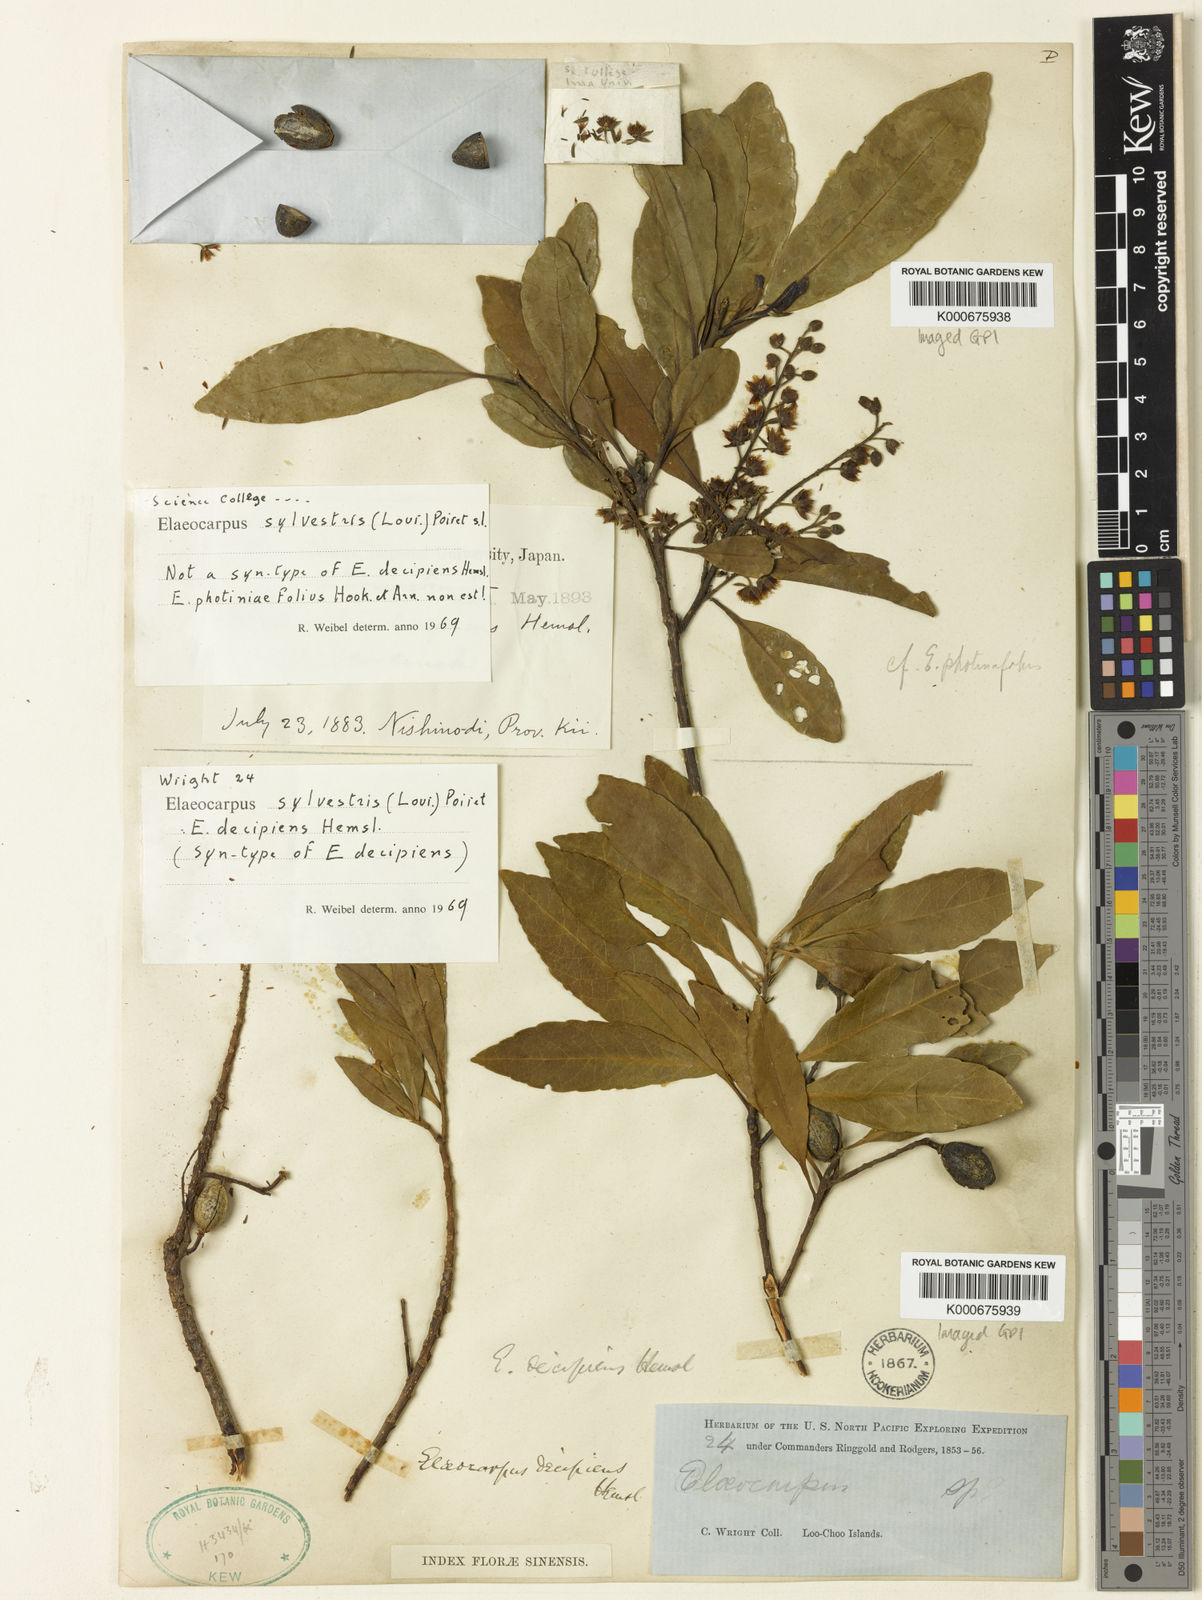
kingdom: Plantae
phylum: Tracheophyta
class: Magnoliopsida
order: Oxalidales
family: Elaeocarpaceae
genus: Elaeocarpus
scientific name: Elaeocarpus decipiens
